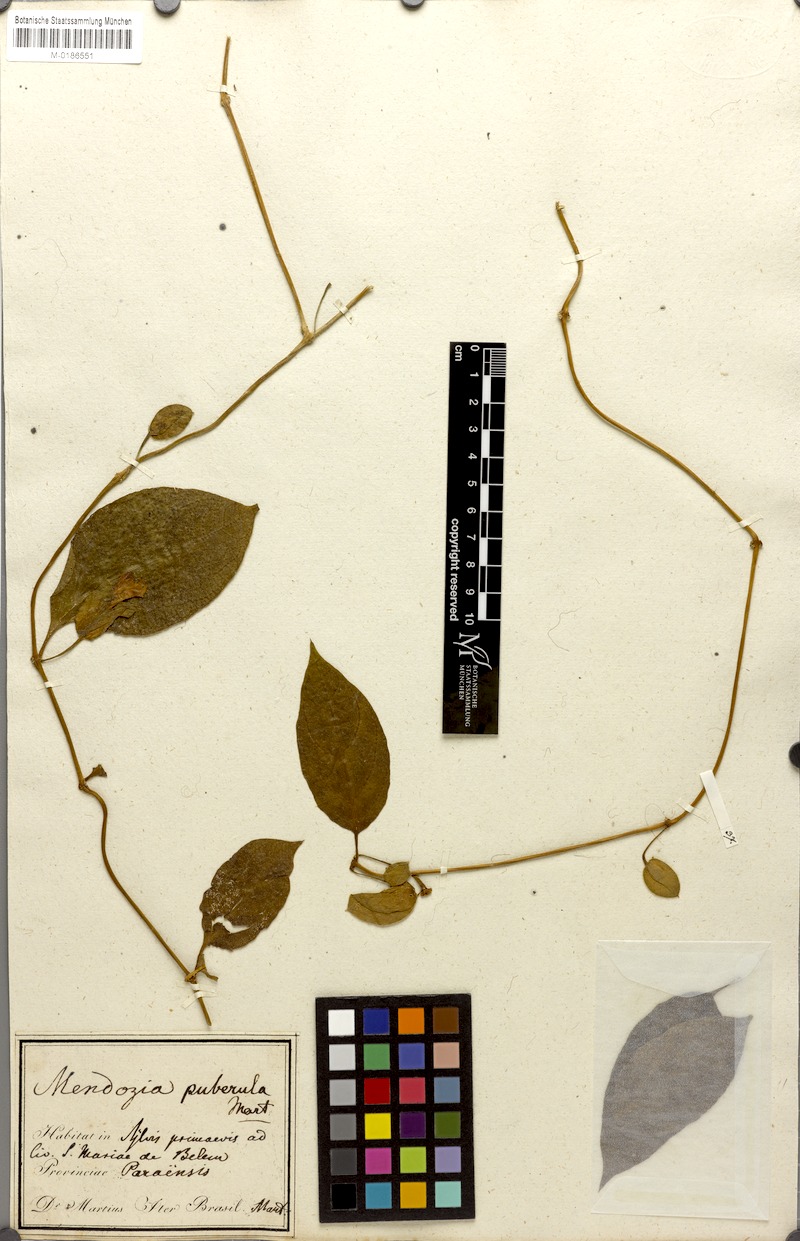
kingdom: Plantae
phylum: Tracheophyta
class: Magnoliopsida
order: Lamiales
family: Acanthaceae
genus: Mendoncia
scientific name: Mendoncia puberula
